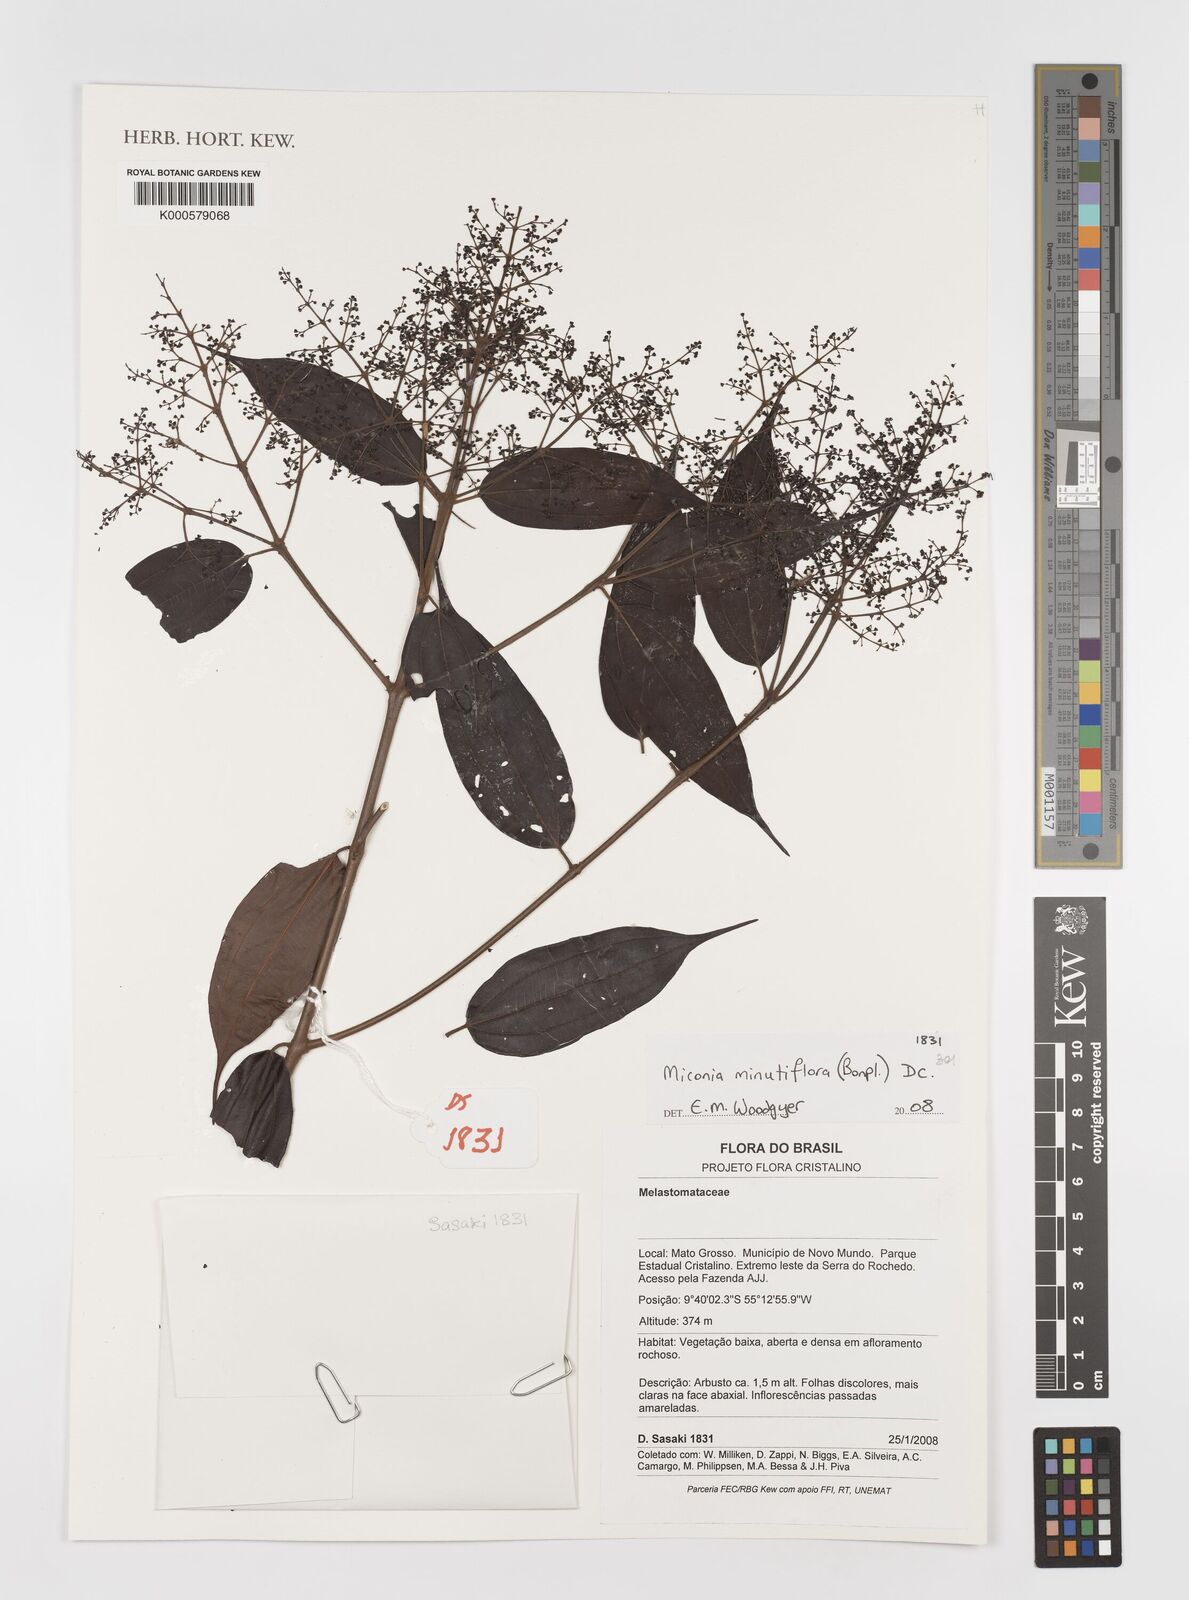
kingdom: Plantae
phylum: Tracheophyta
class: Magnoliopsida
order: Myrtales
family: Melastomataceae
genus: Miconia
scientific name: Miconia minutiflora
